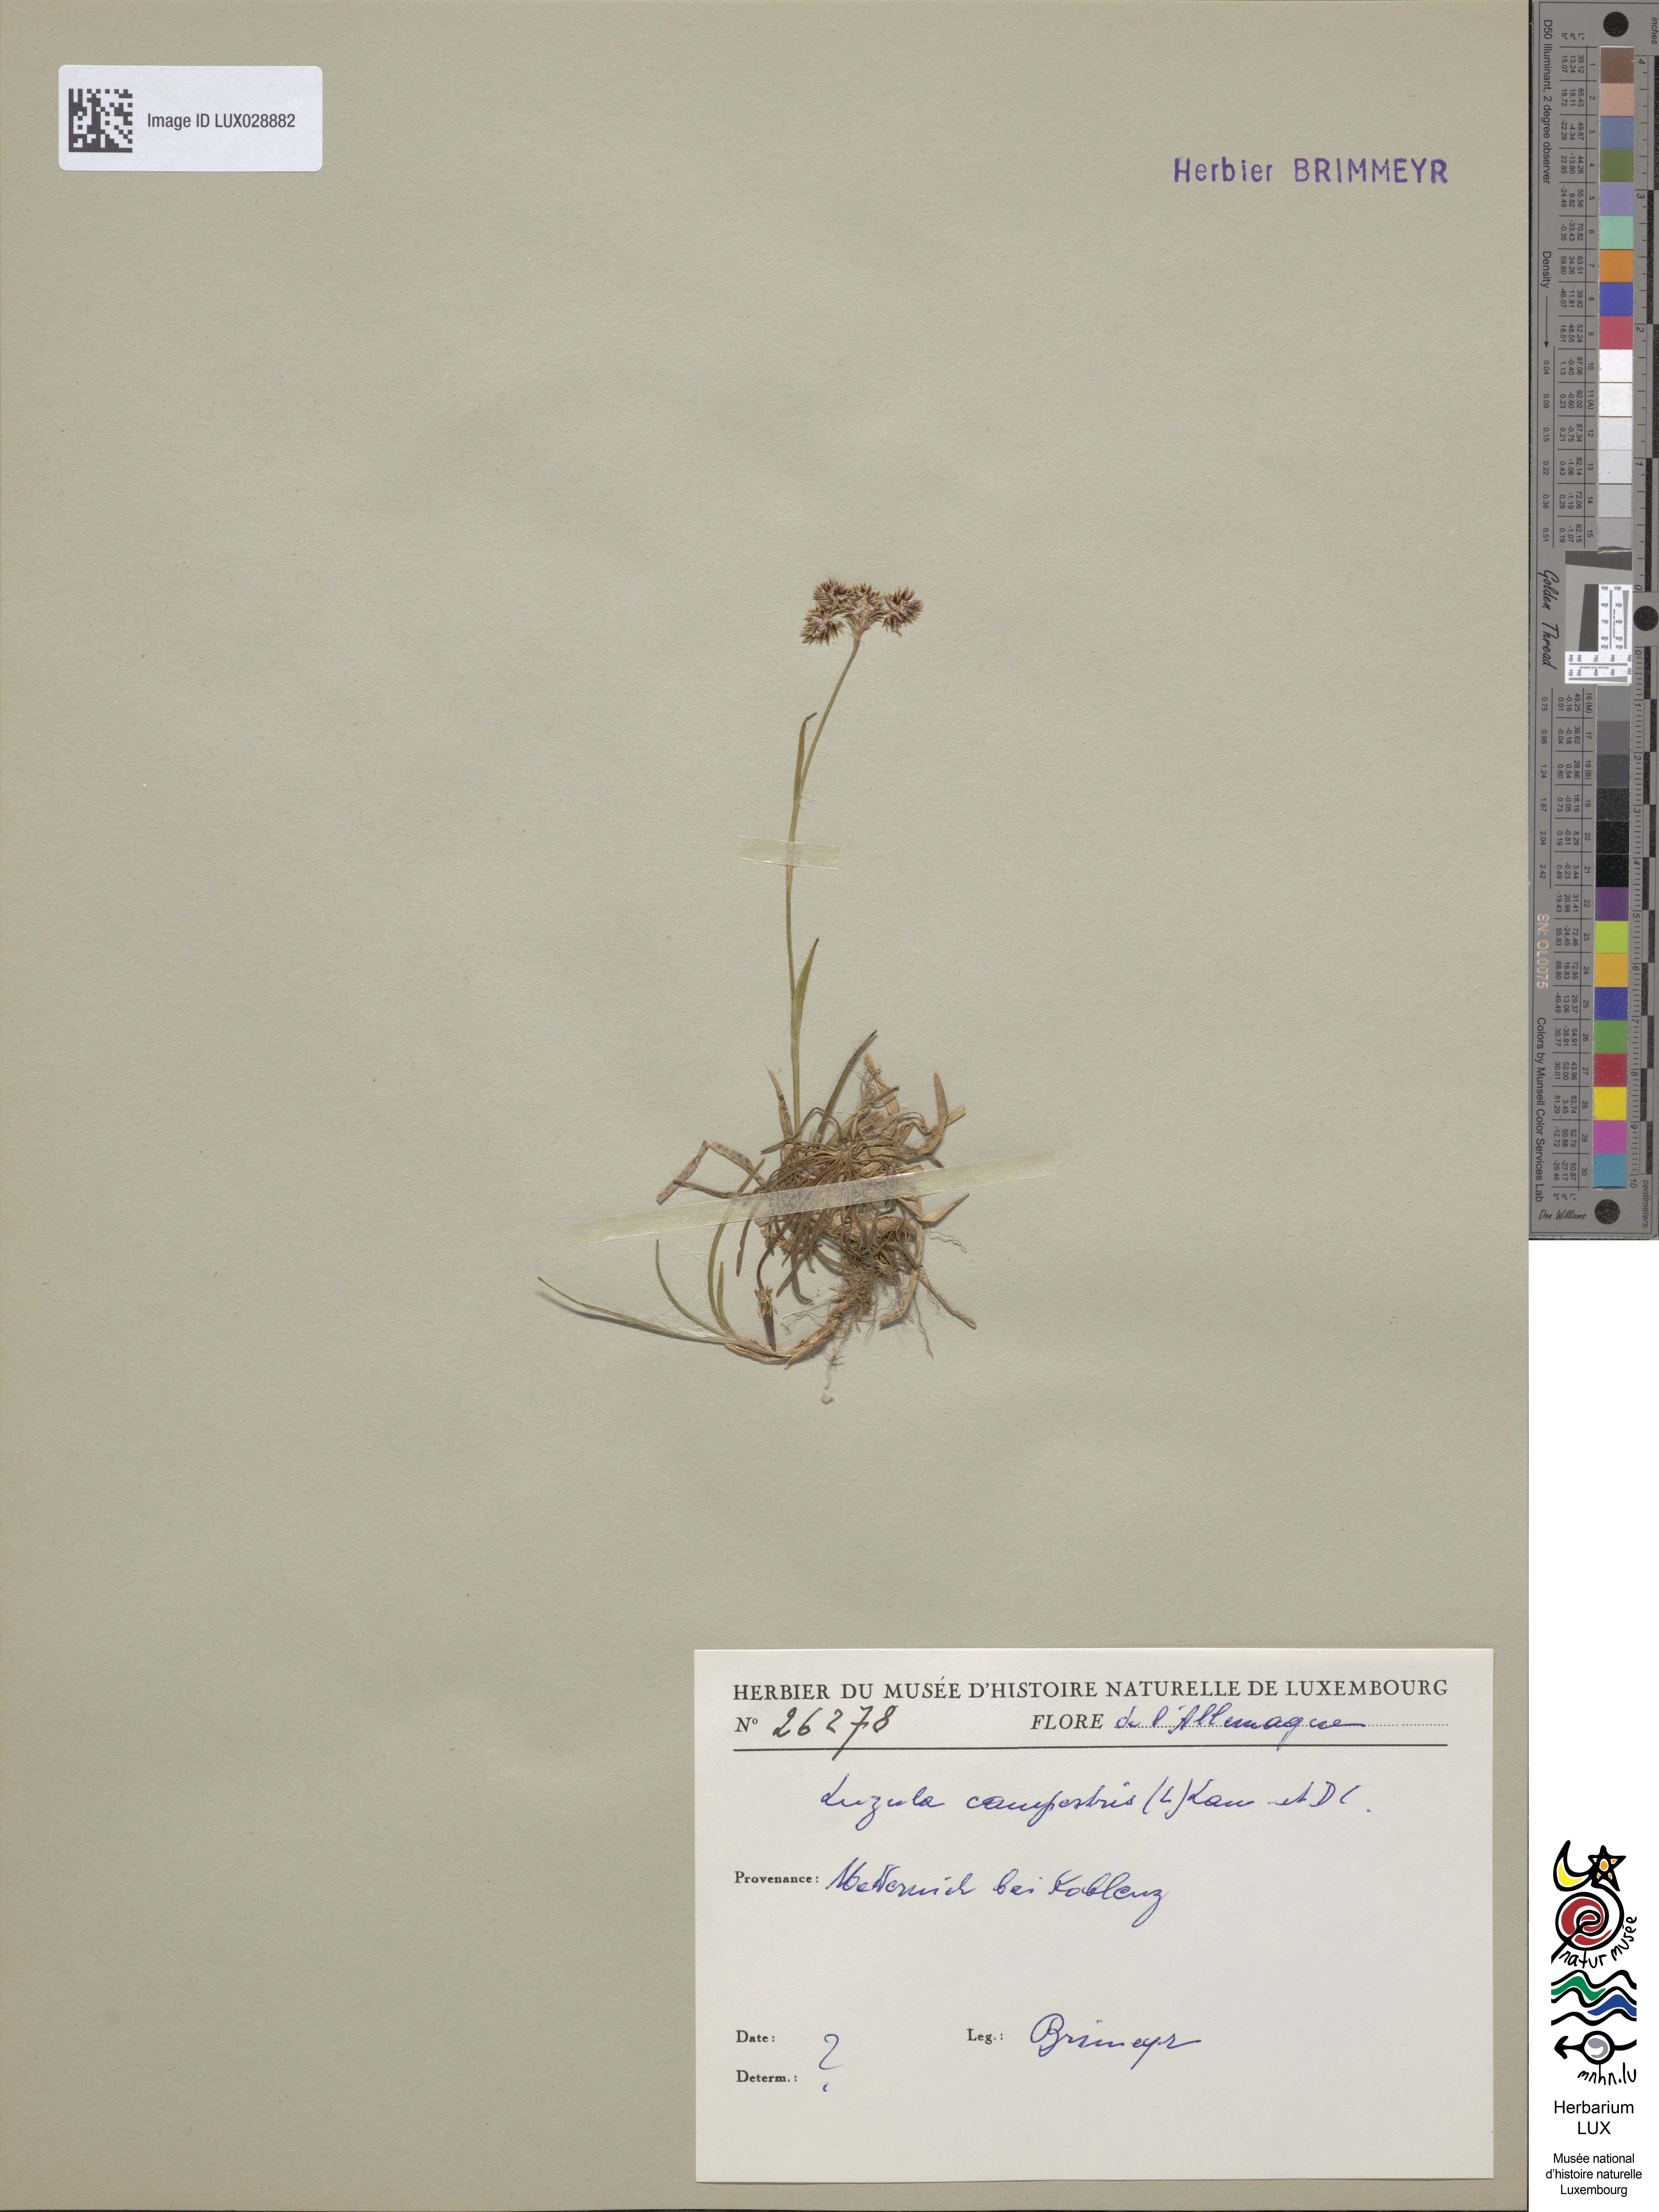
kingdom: Plantae
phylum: Tracheophyta
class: Liliopsida
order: Poales
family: Juncaceae
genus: Luzula
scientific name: Luzula campestris
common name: Field wood-rush
